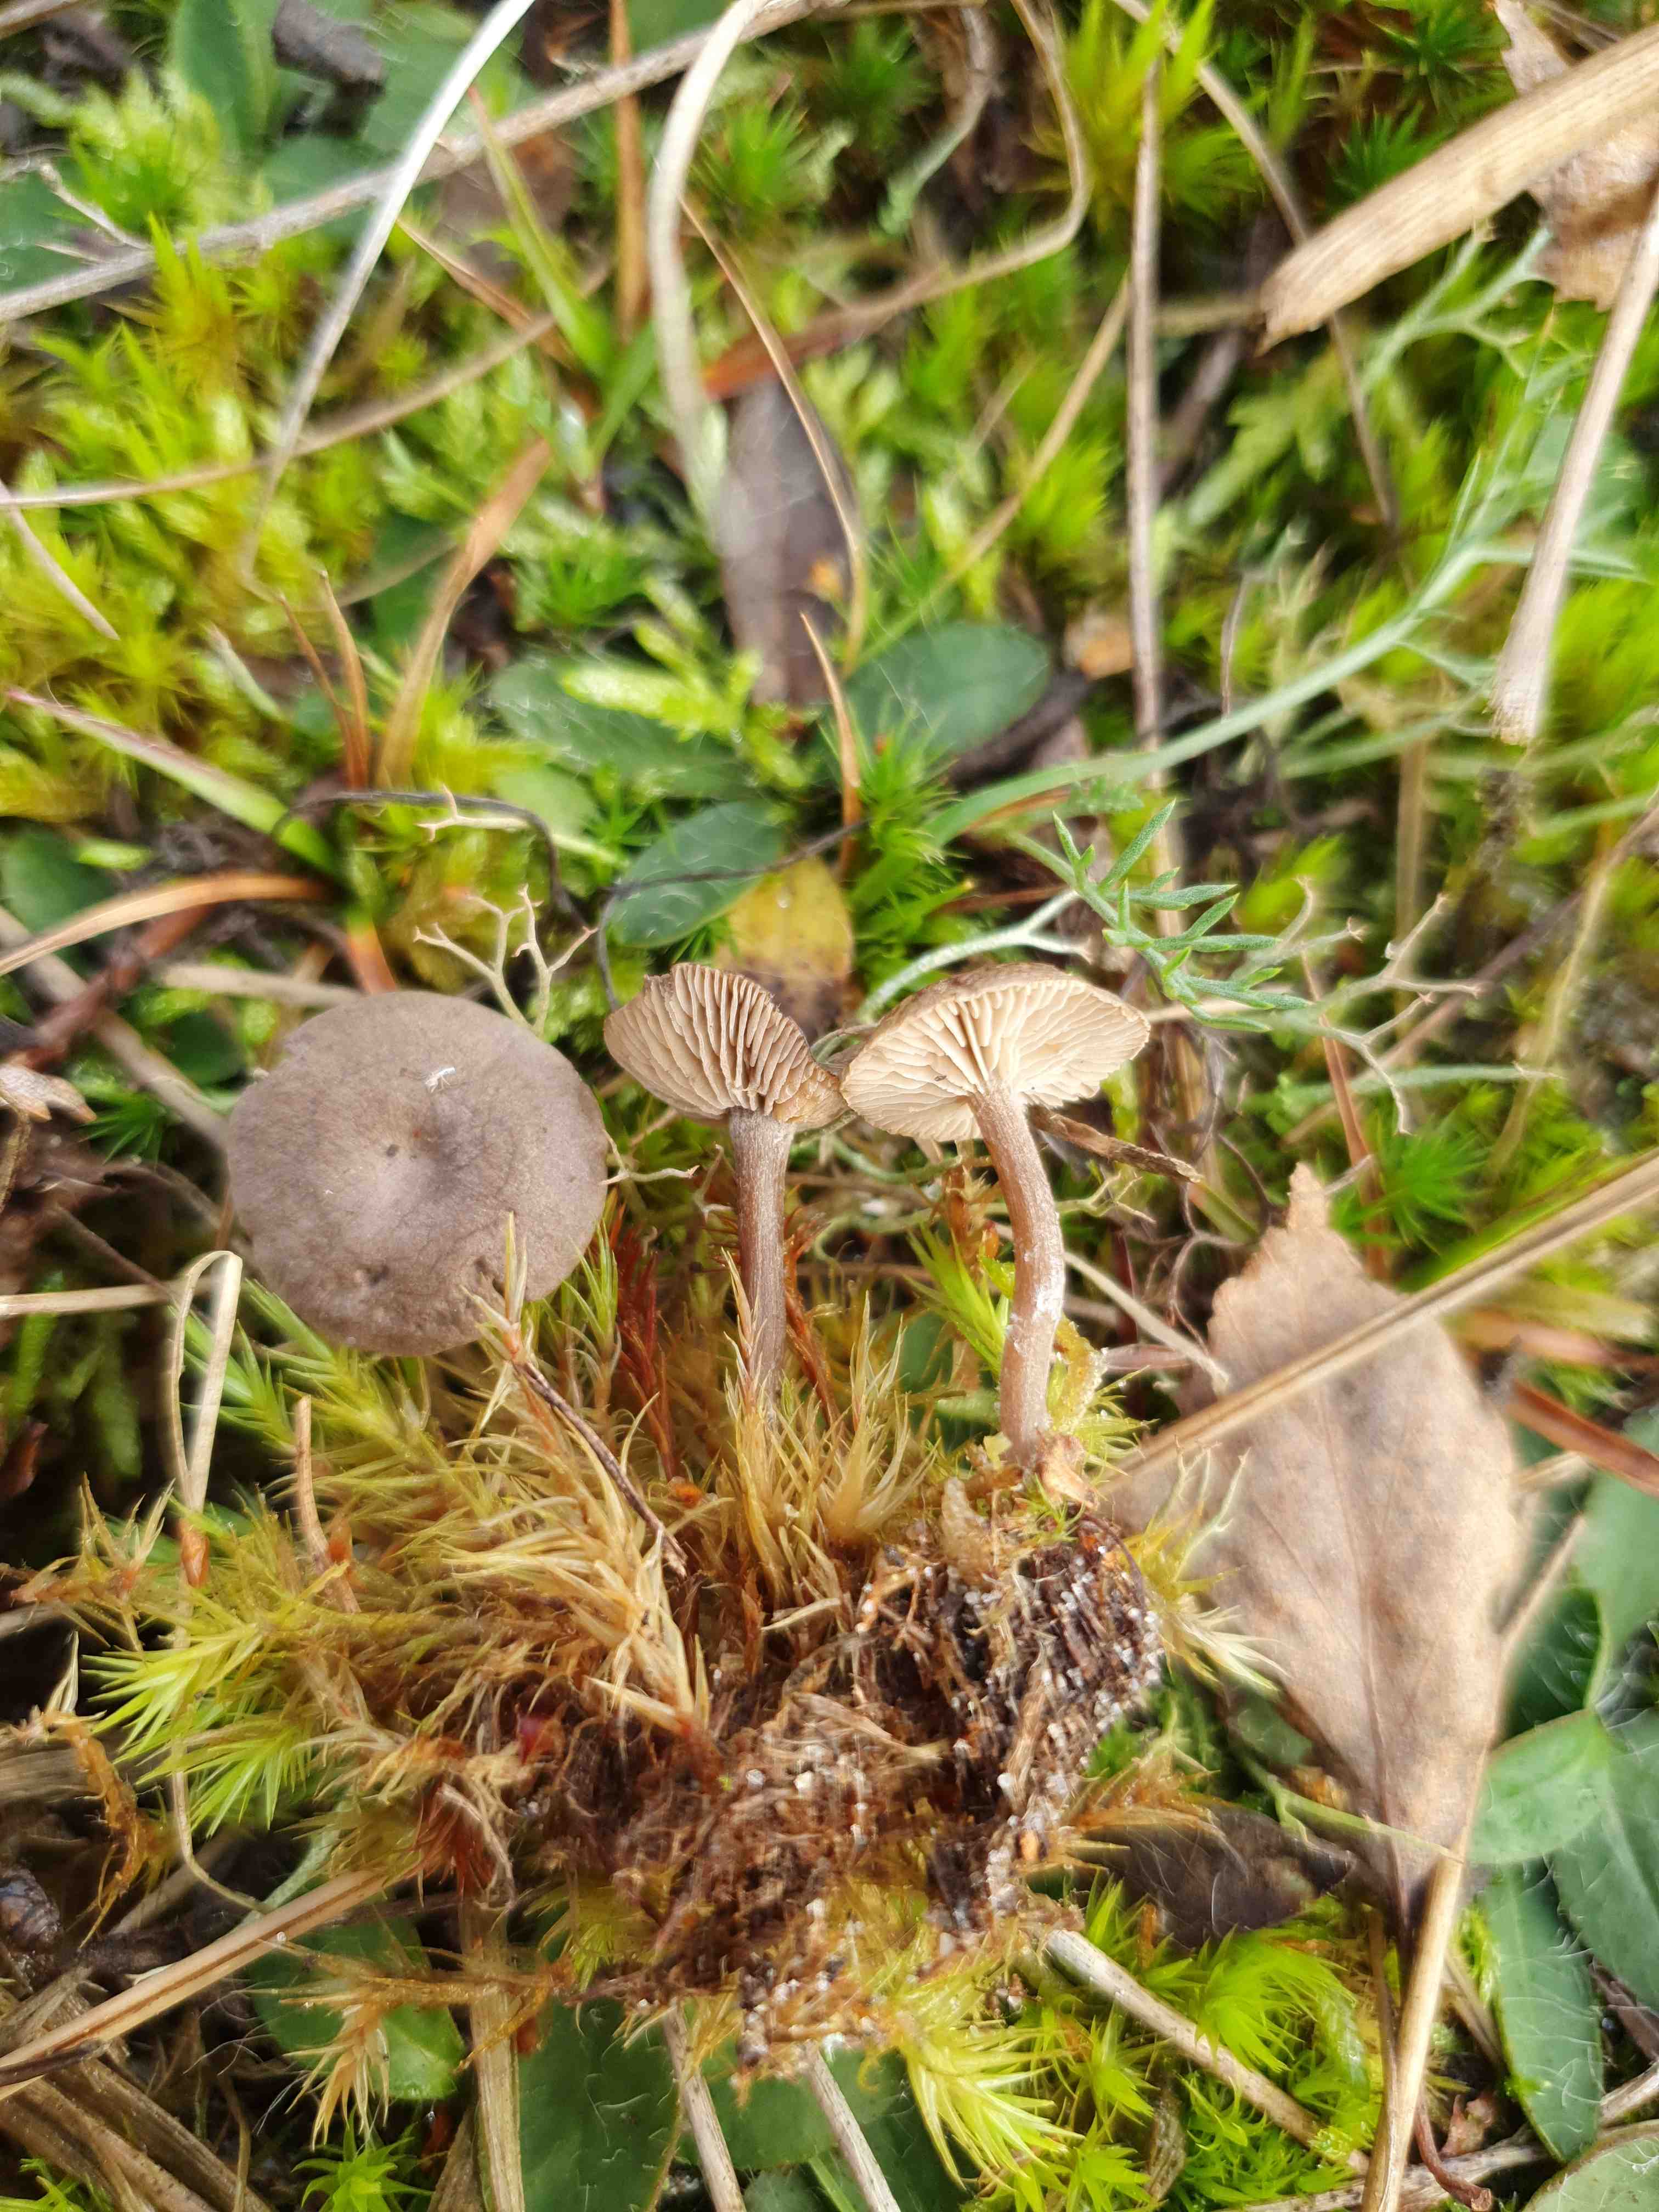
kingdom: Fungi
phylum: Basidiomycota
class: Agaricomycetes
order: Agaricales
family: Entolomataceae
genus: Clitopilus
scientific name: Clitopilus caelatus
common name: gråbrun troldhat
